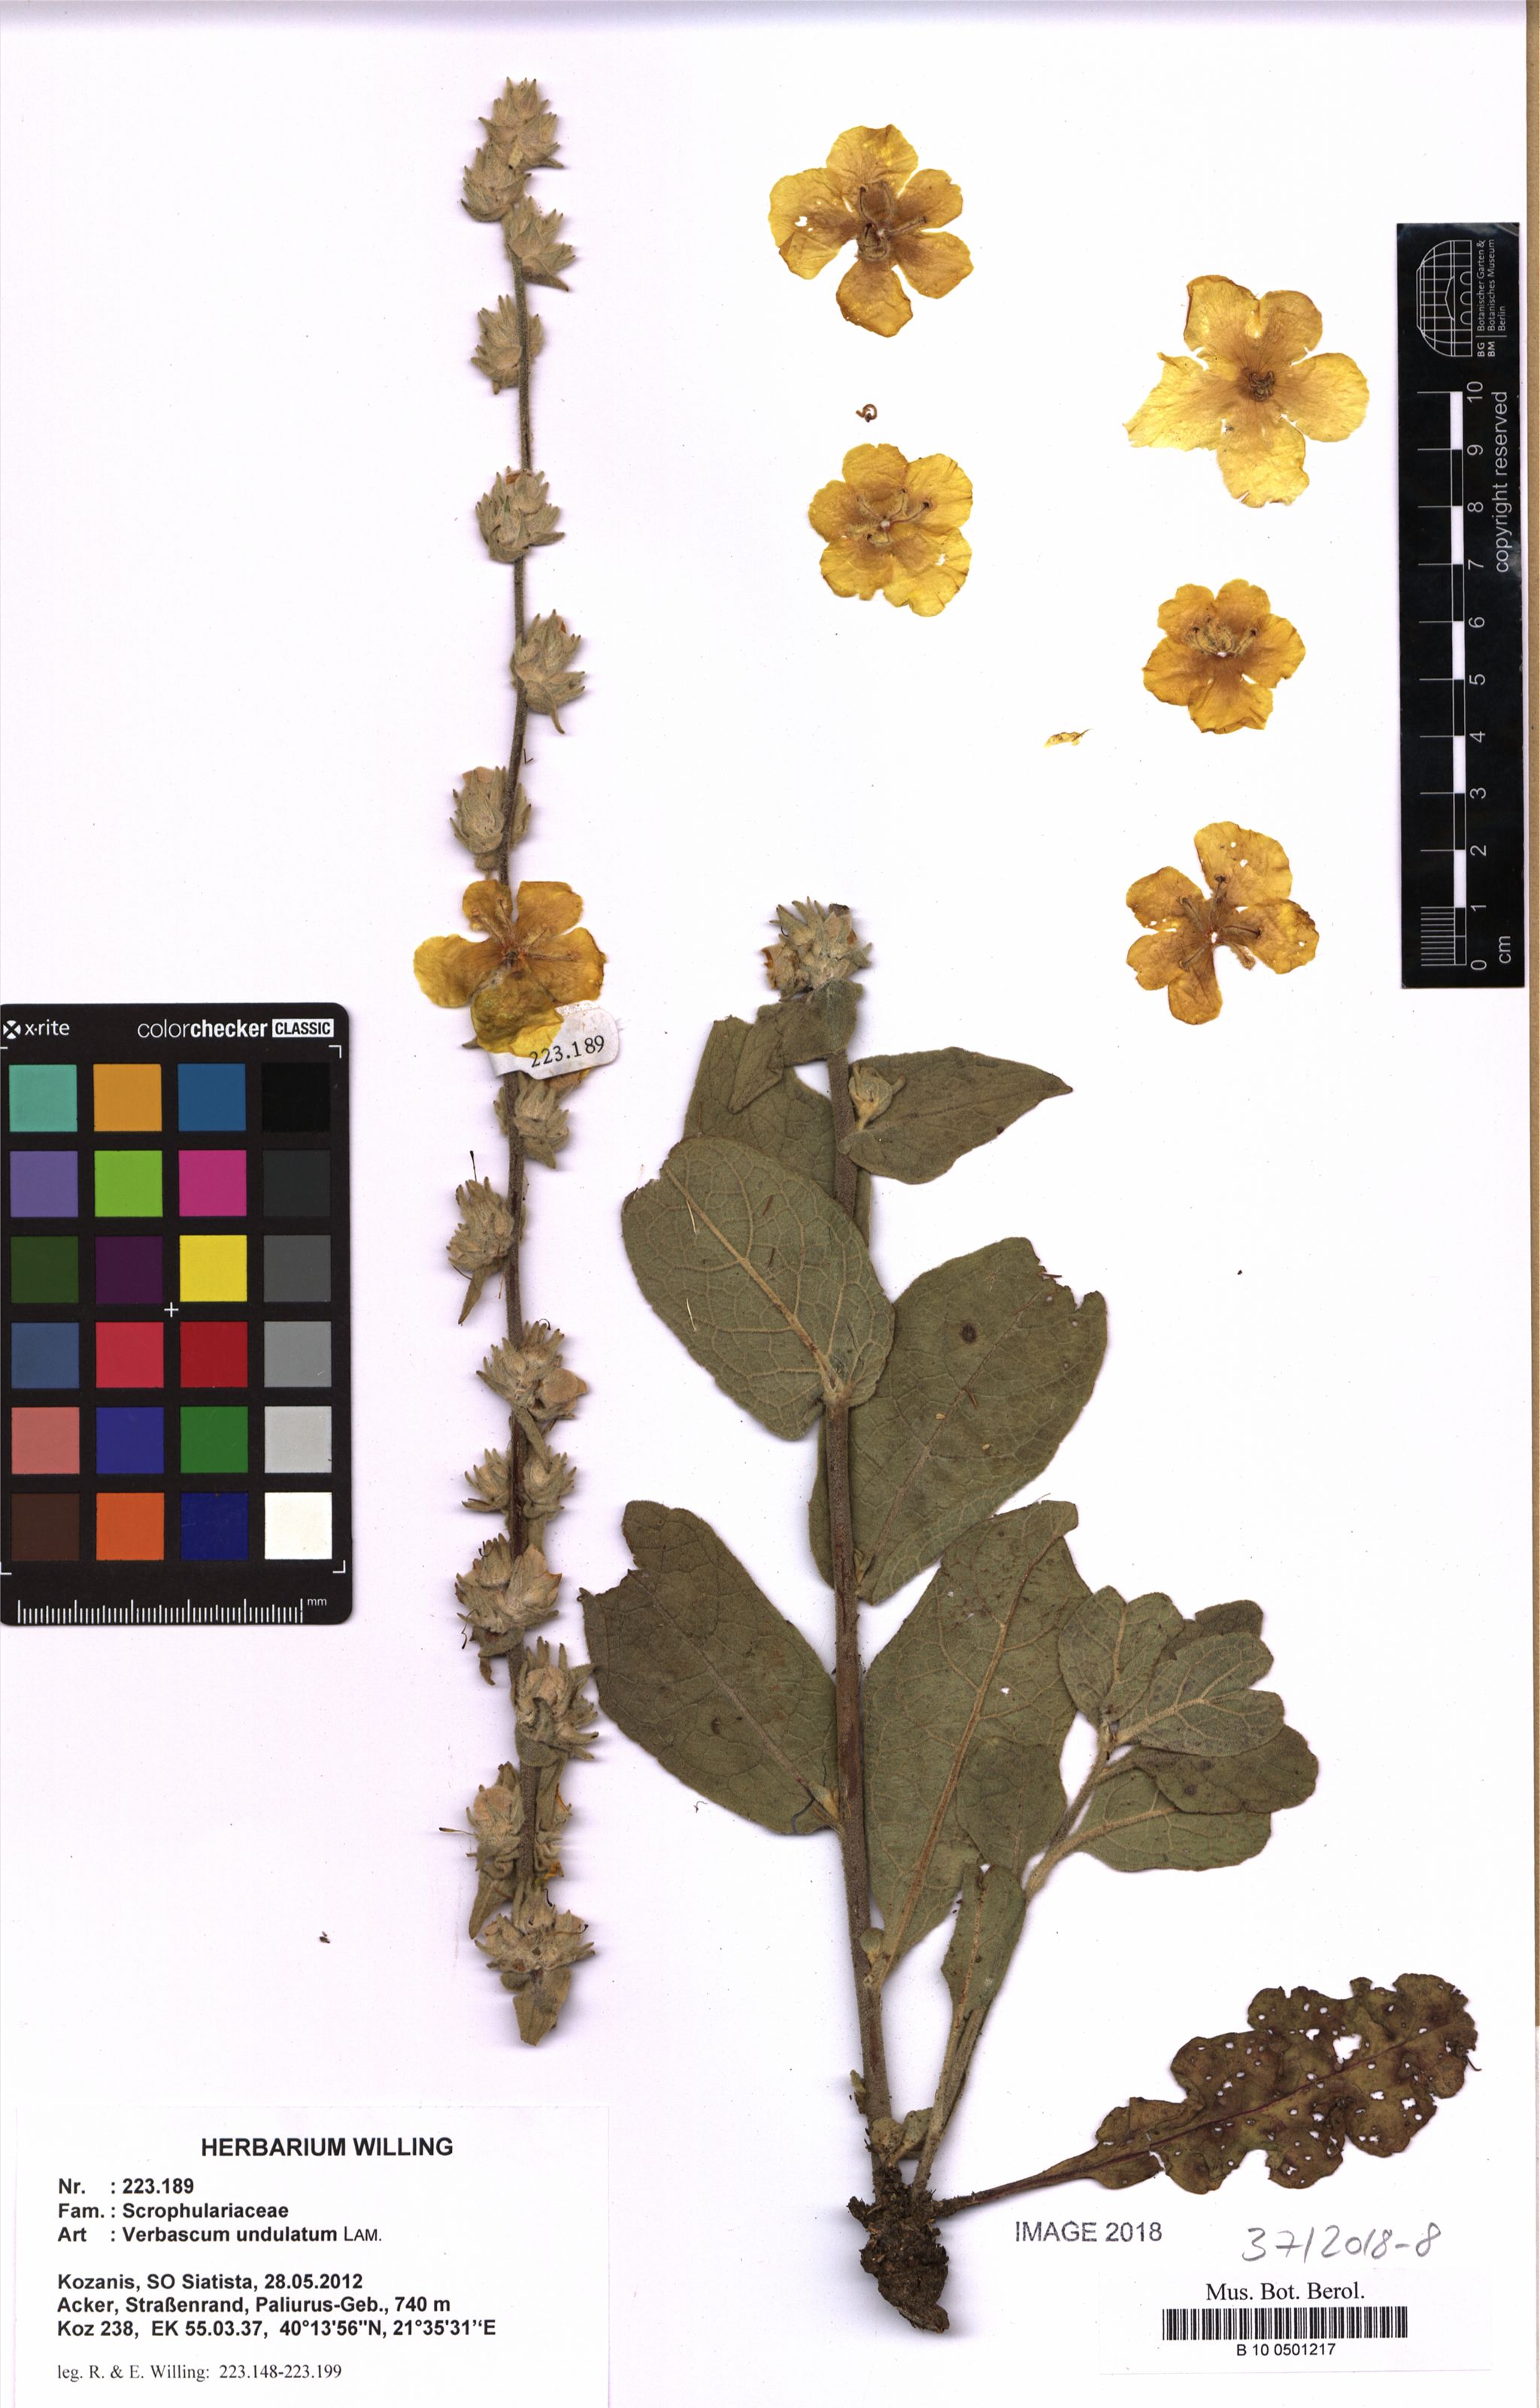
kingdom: Plantae
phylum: Tracheophyta
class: Magnoliopsida
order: Lamiales
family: Scrophulariaceae
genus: Verbascum
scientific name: Verbascum undulatum
